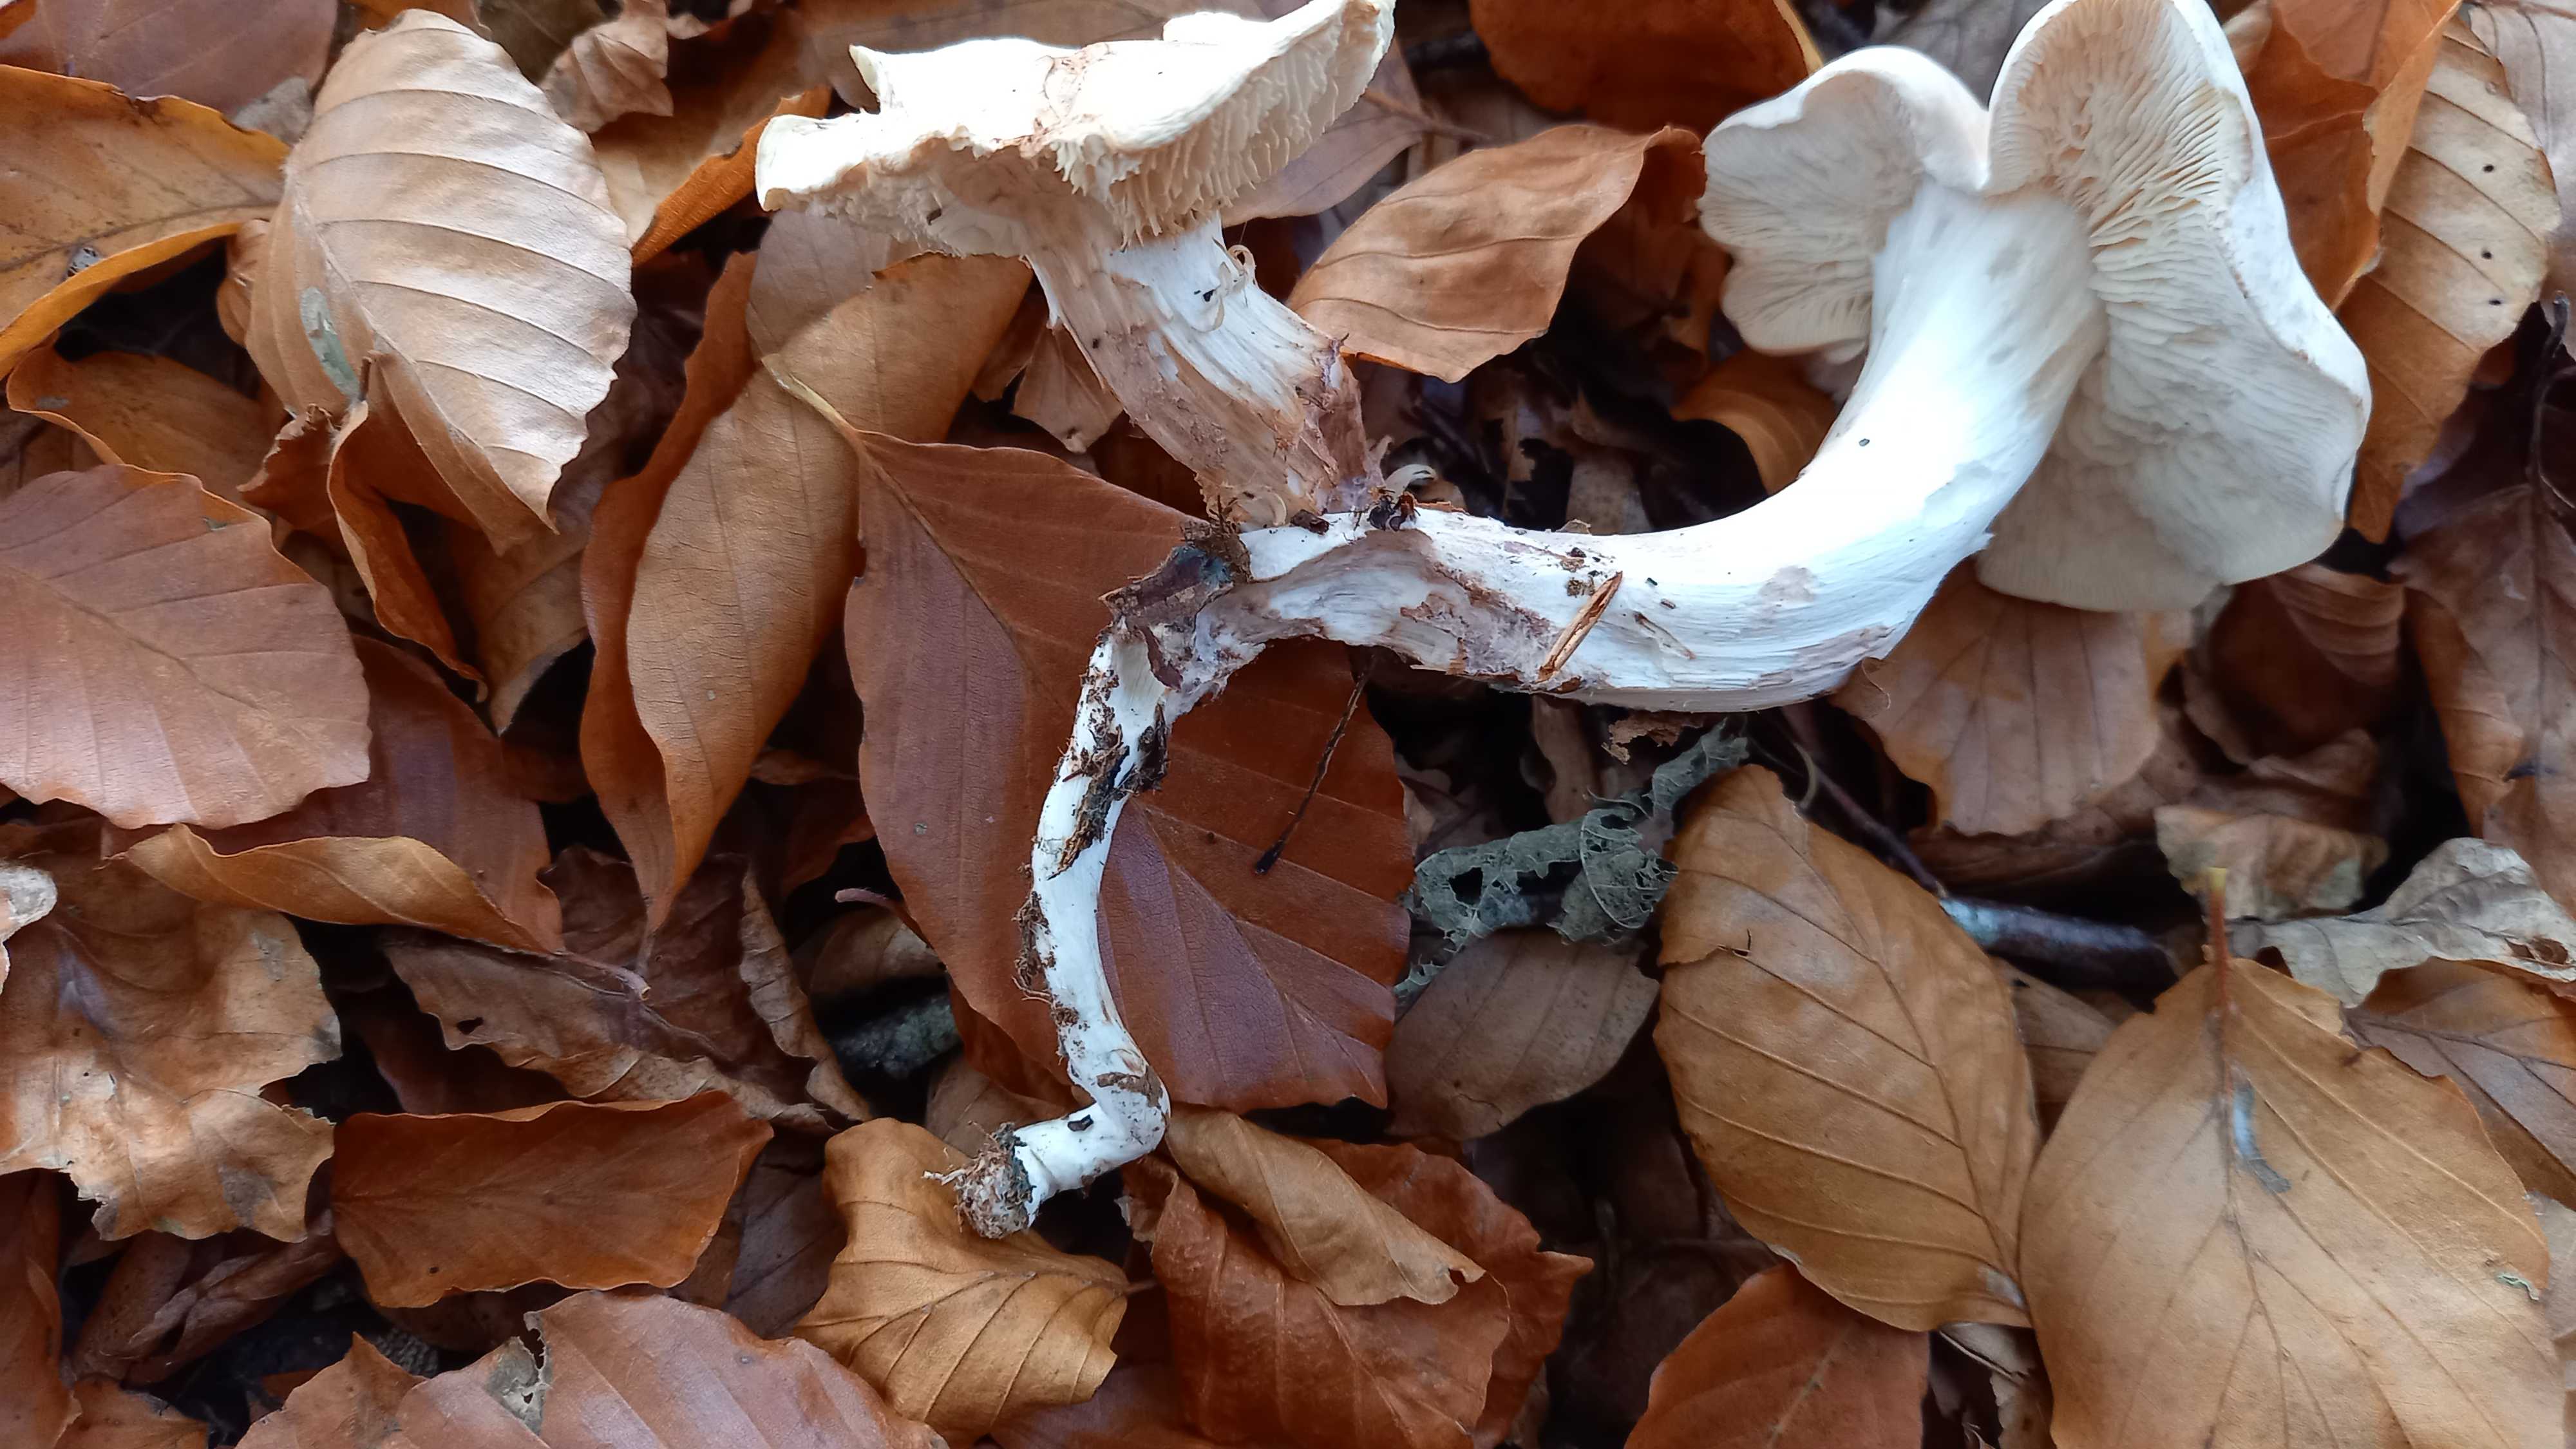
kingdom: Fungi
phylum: Basidiomycota
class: Agaricomycetes
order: Agaricales
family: Omphalotaceae
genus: Rhodocollybia
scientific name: Rhodocollybia maculata
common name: plettet fladhat
